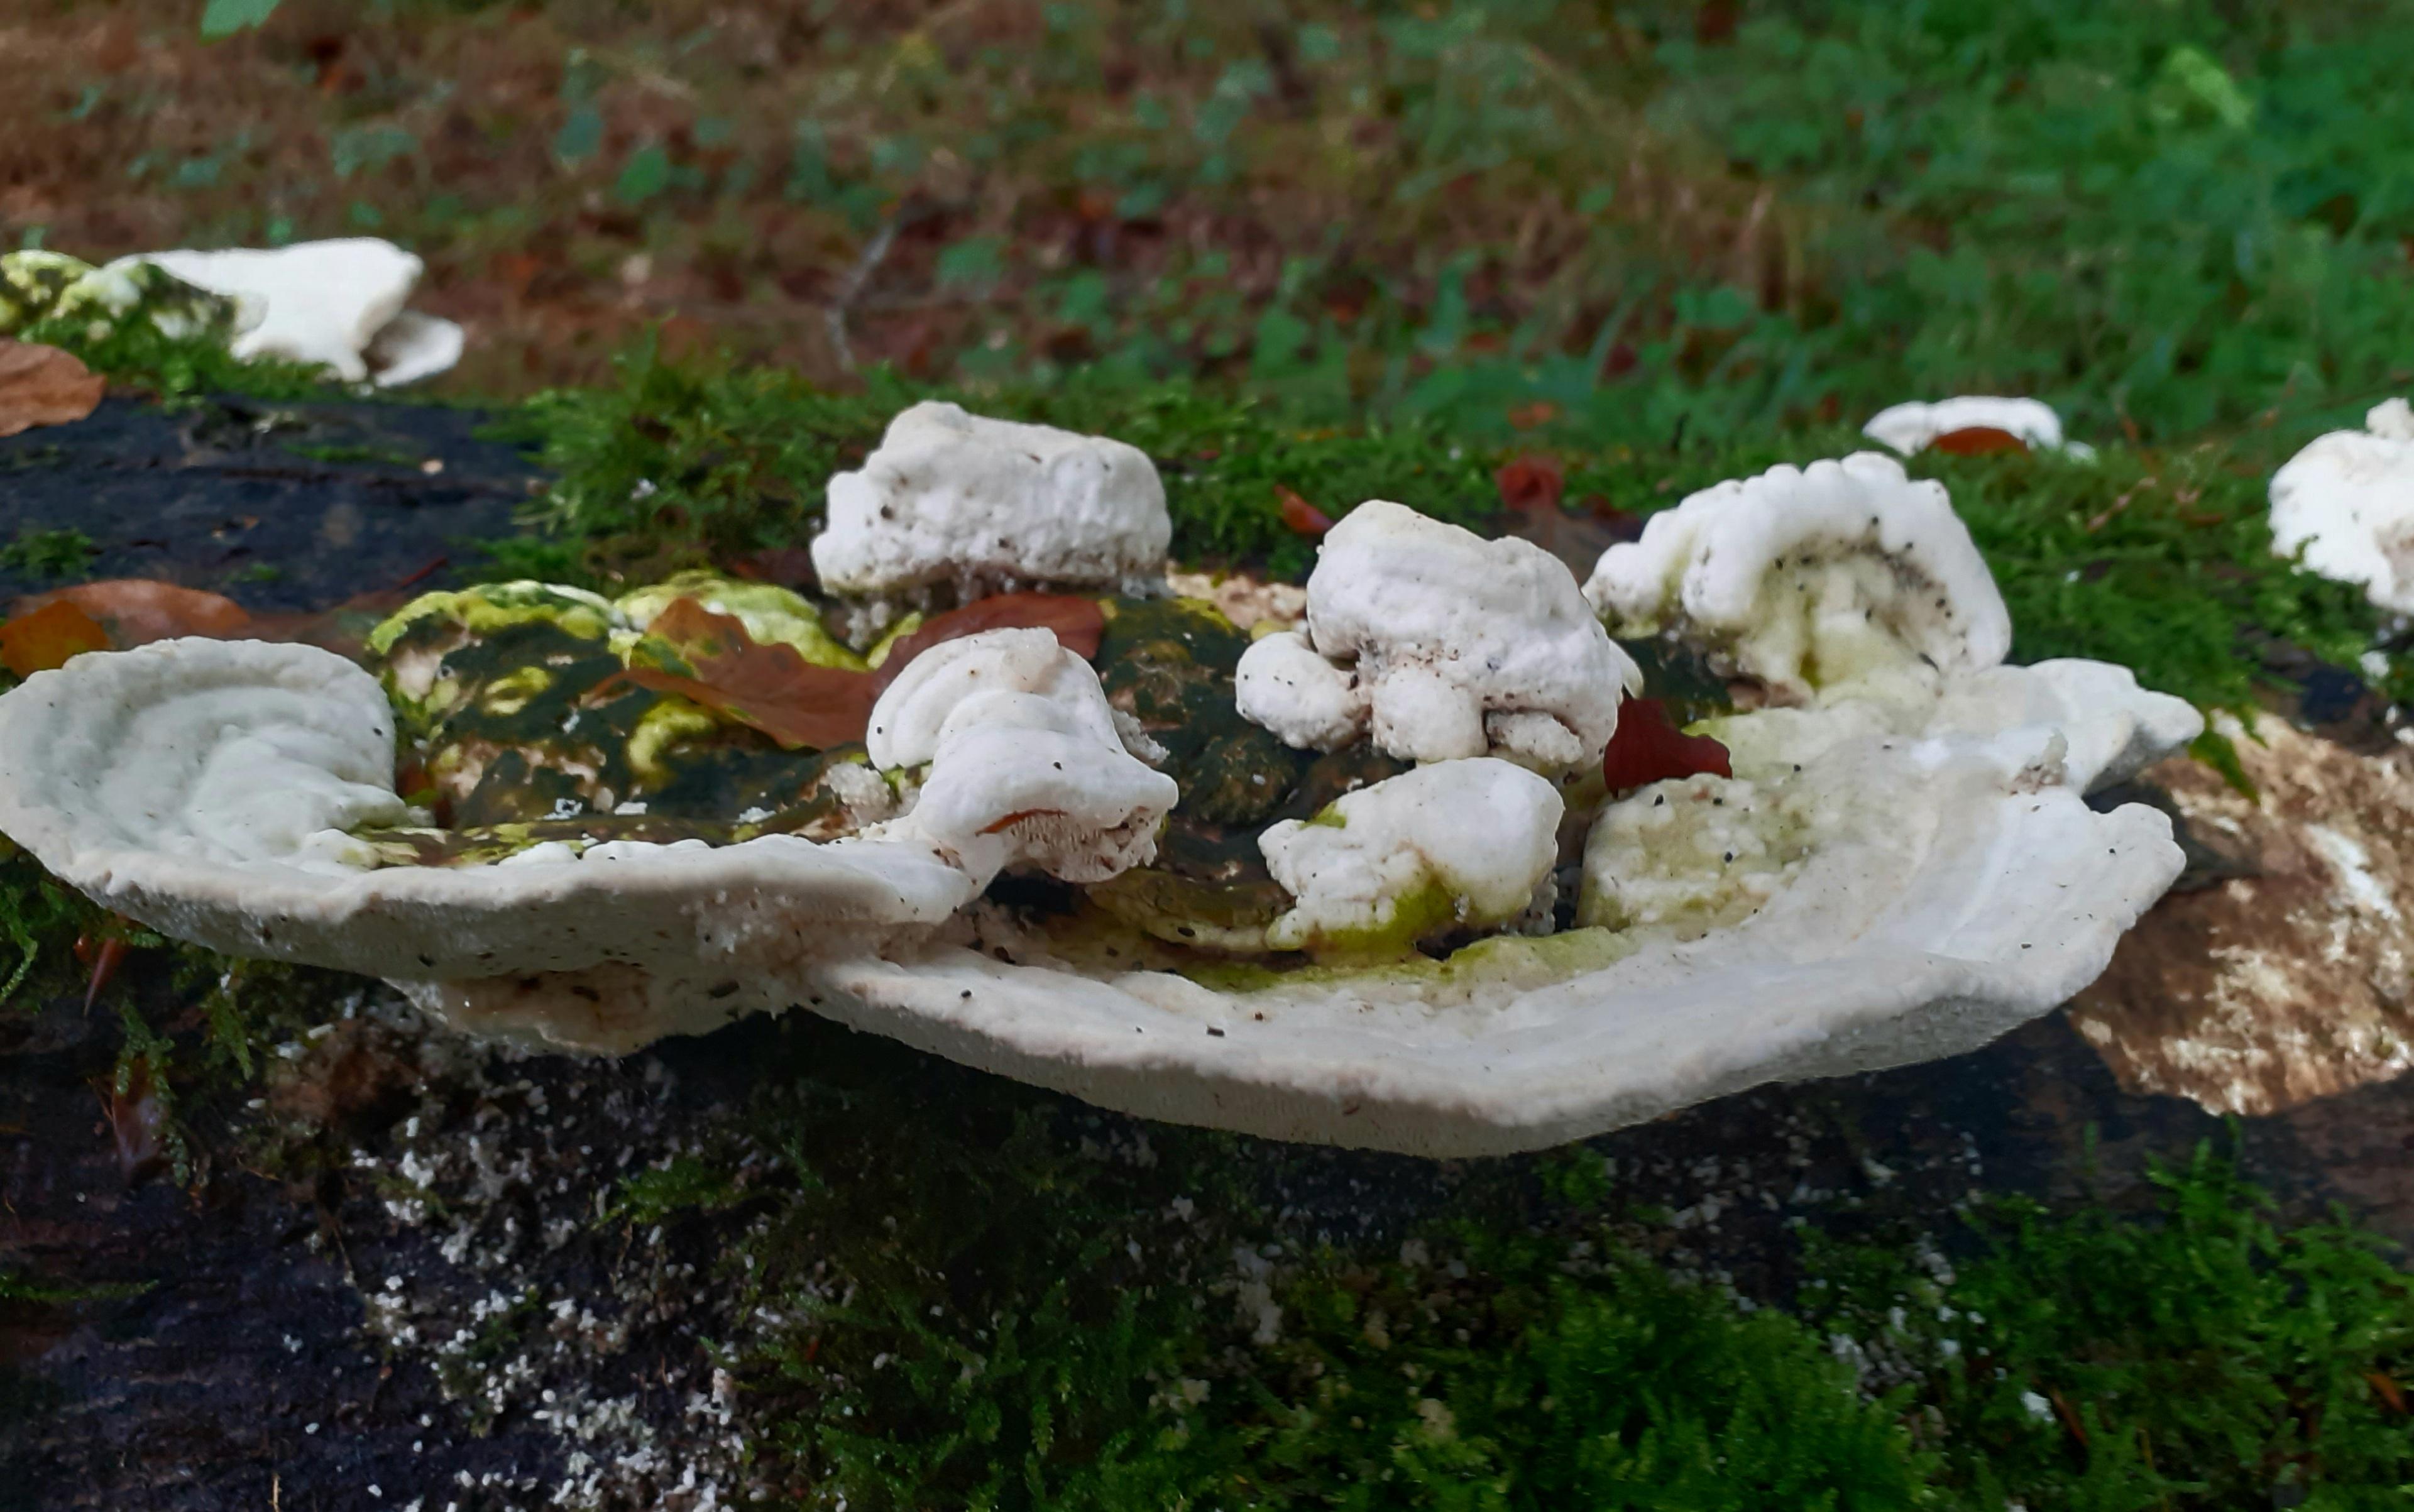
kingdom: Fungi
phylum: Basidiomycota
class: Agaricomycetes
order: Polyporales
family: Polyporaceae
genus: Trametes
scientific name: Trametes gibbosa
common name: puklet læderporesvamp
